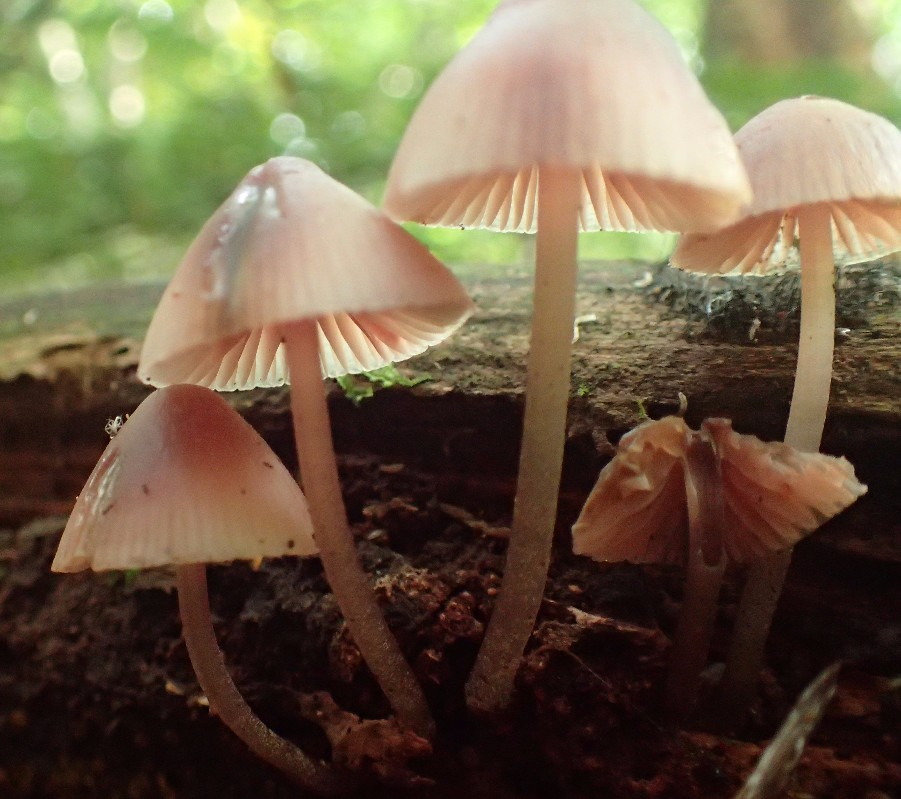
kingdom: Fungi
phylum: Basidiomycota
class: Agaricomycetes
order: Agaricales
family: Mycenaceae
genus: Mycena
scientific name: Mycena haematopus
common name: blødende huesvamp
